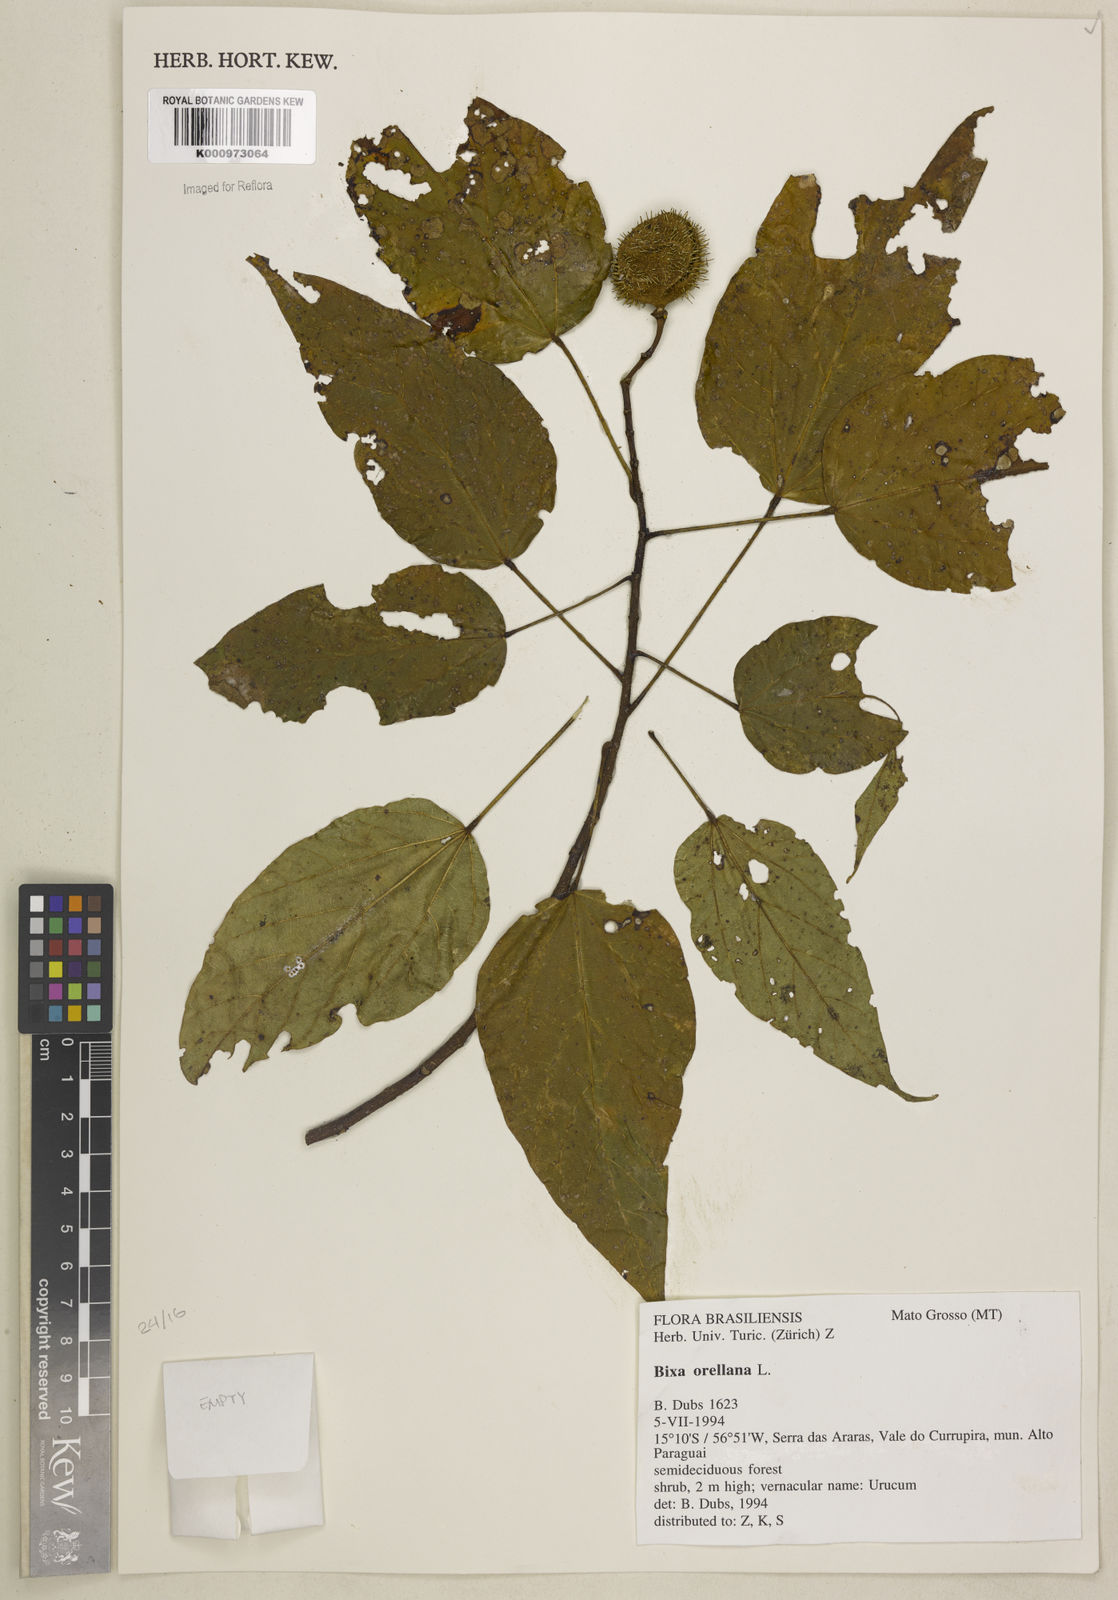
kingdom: Plantae
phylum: Tracheophyta
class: Magnoliopsida
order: Malvales
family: Bixaceae
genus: Bixa
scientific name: Bixa orellana
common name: Lipsticktree
